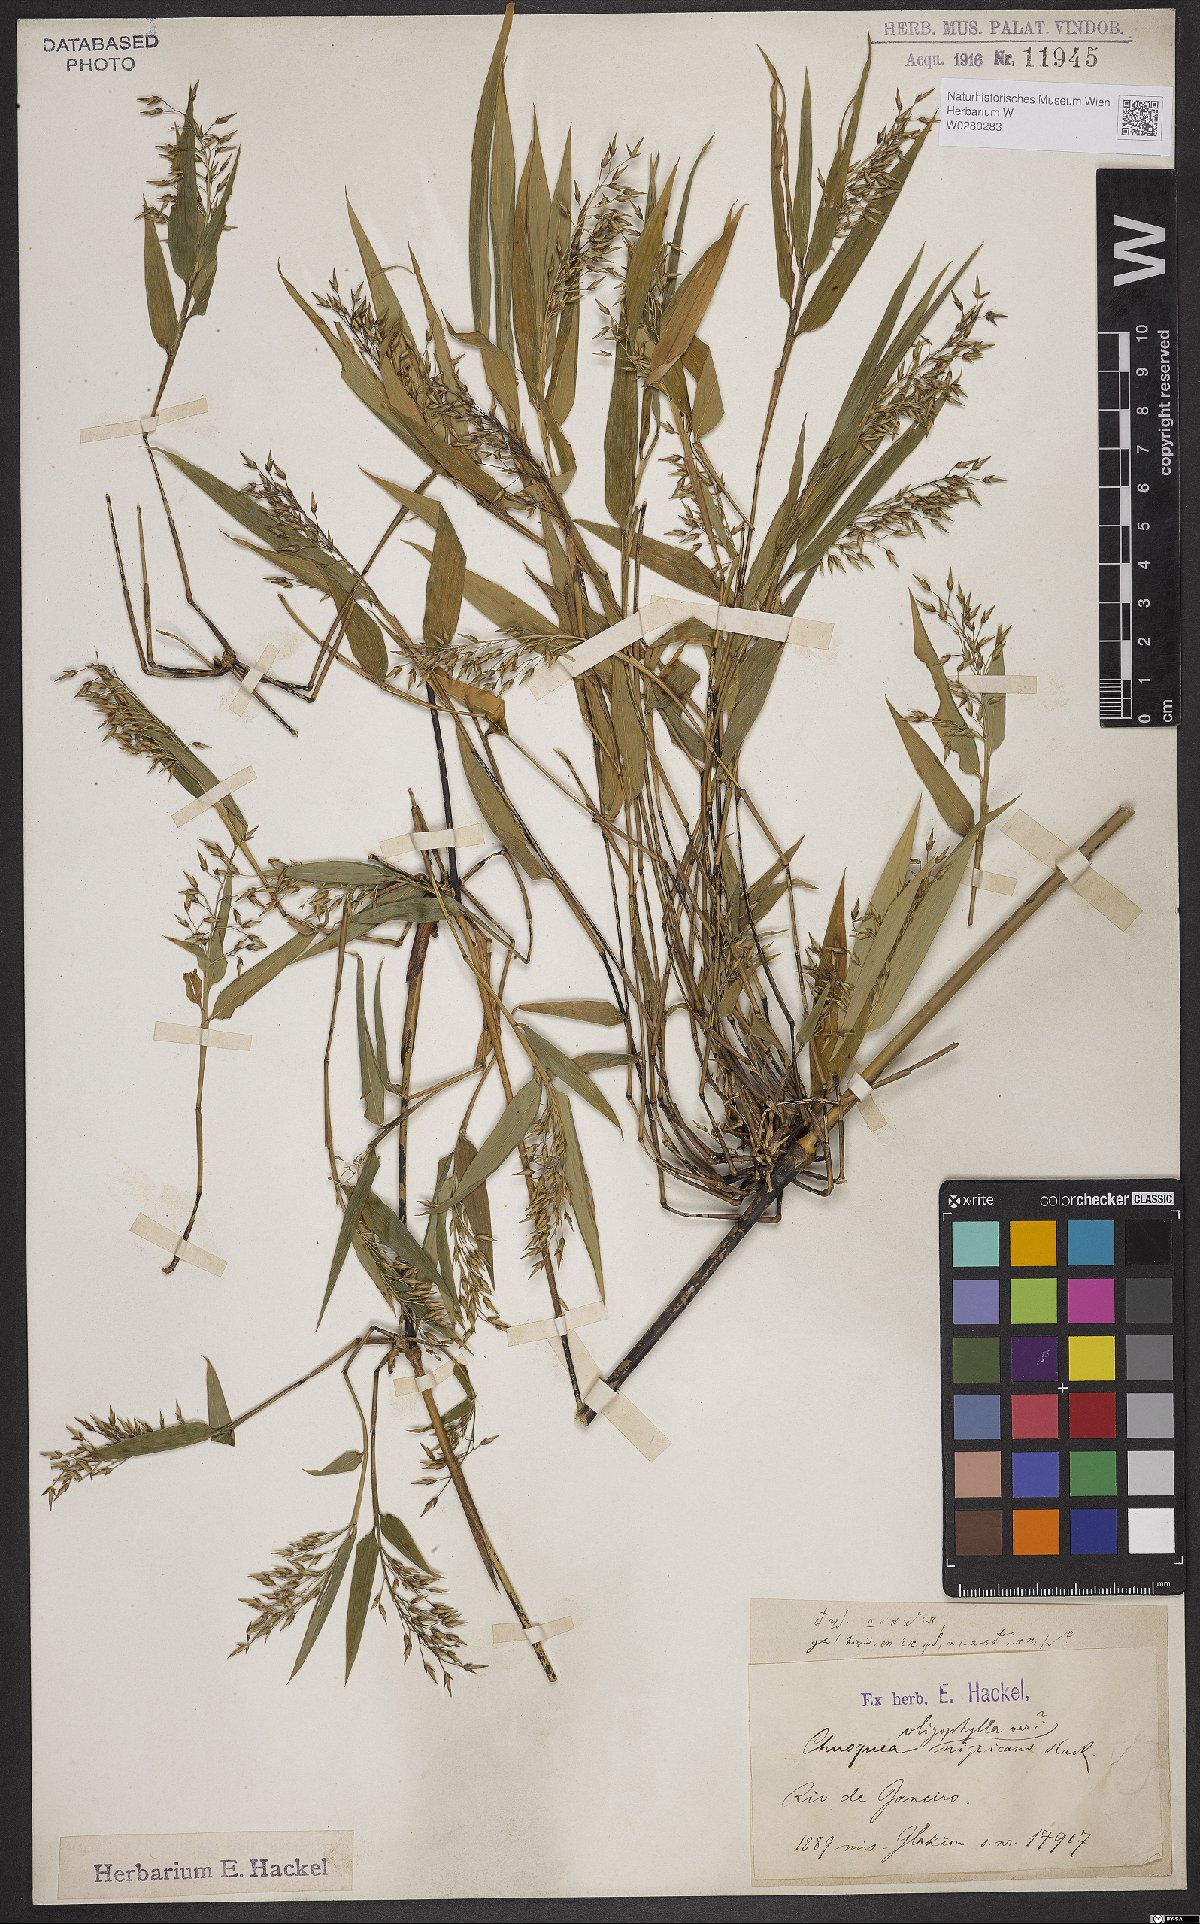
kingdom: Plantae
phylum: Tracheophyta
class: Liliopsida
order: Poales
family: Poaceae
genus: Chusquea
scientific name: Chusquea oligophylla
